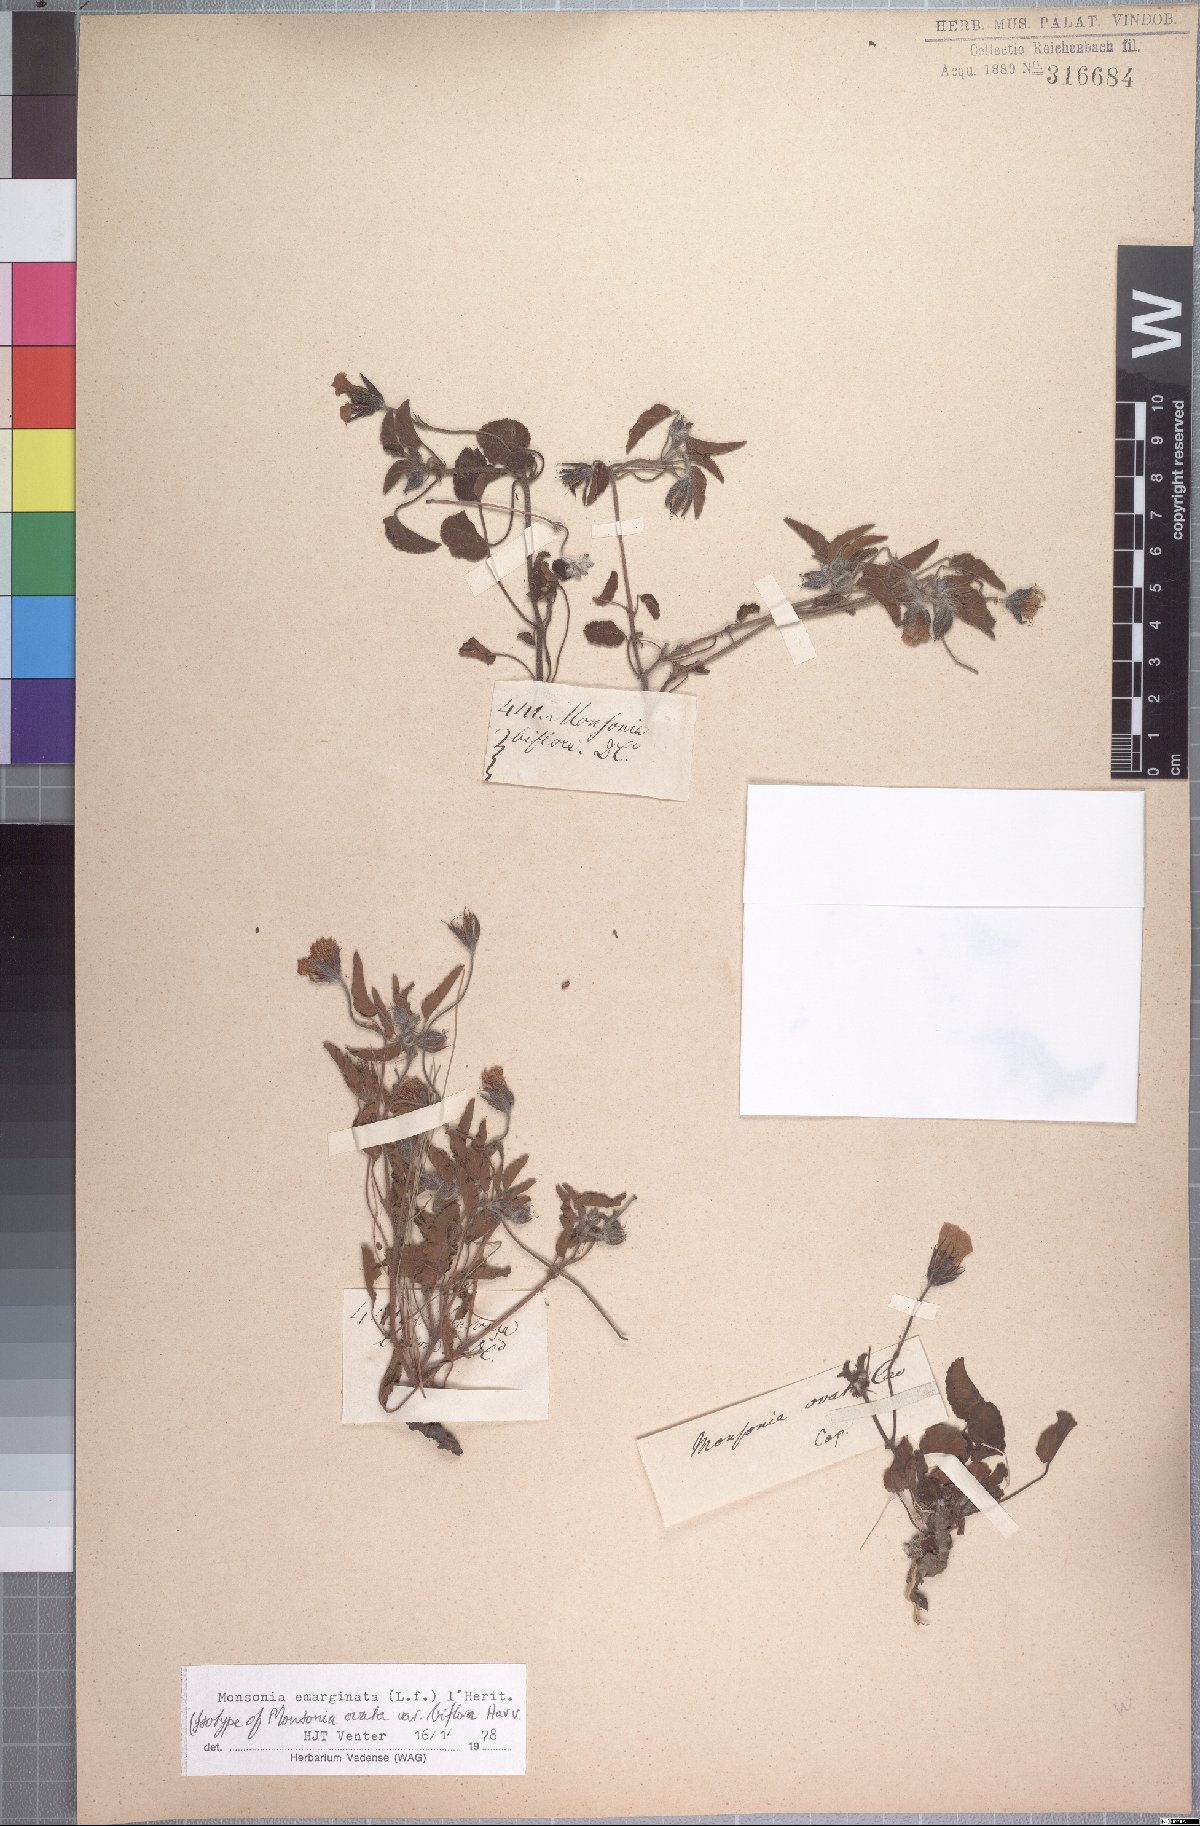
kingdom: Plantae
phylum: Tracheophyta
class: Magnoliopsida
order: Geraniales
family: Geraniaceae
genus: Monsonia
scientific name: Monsonia emarginata
